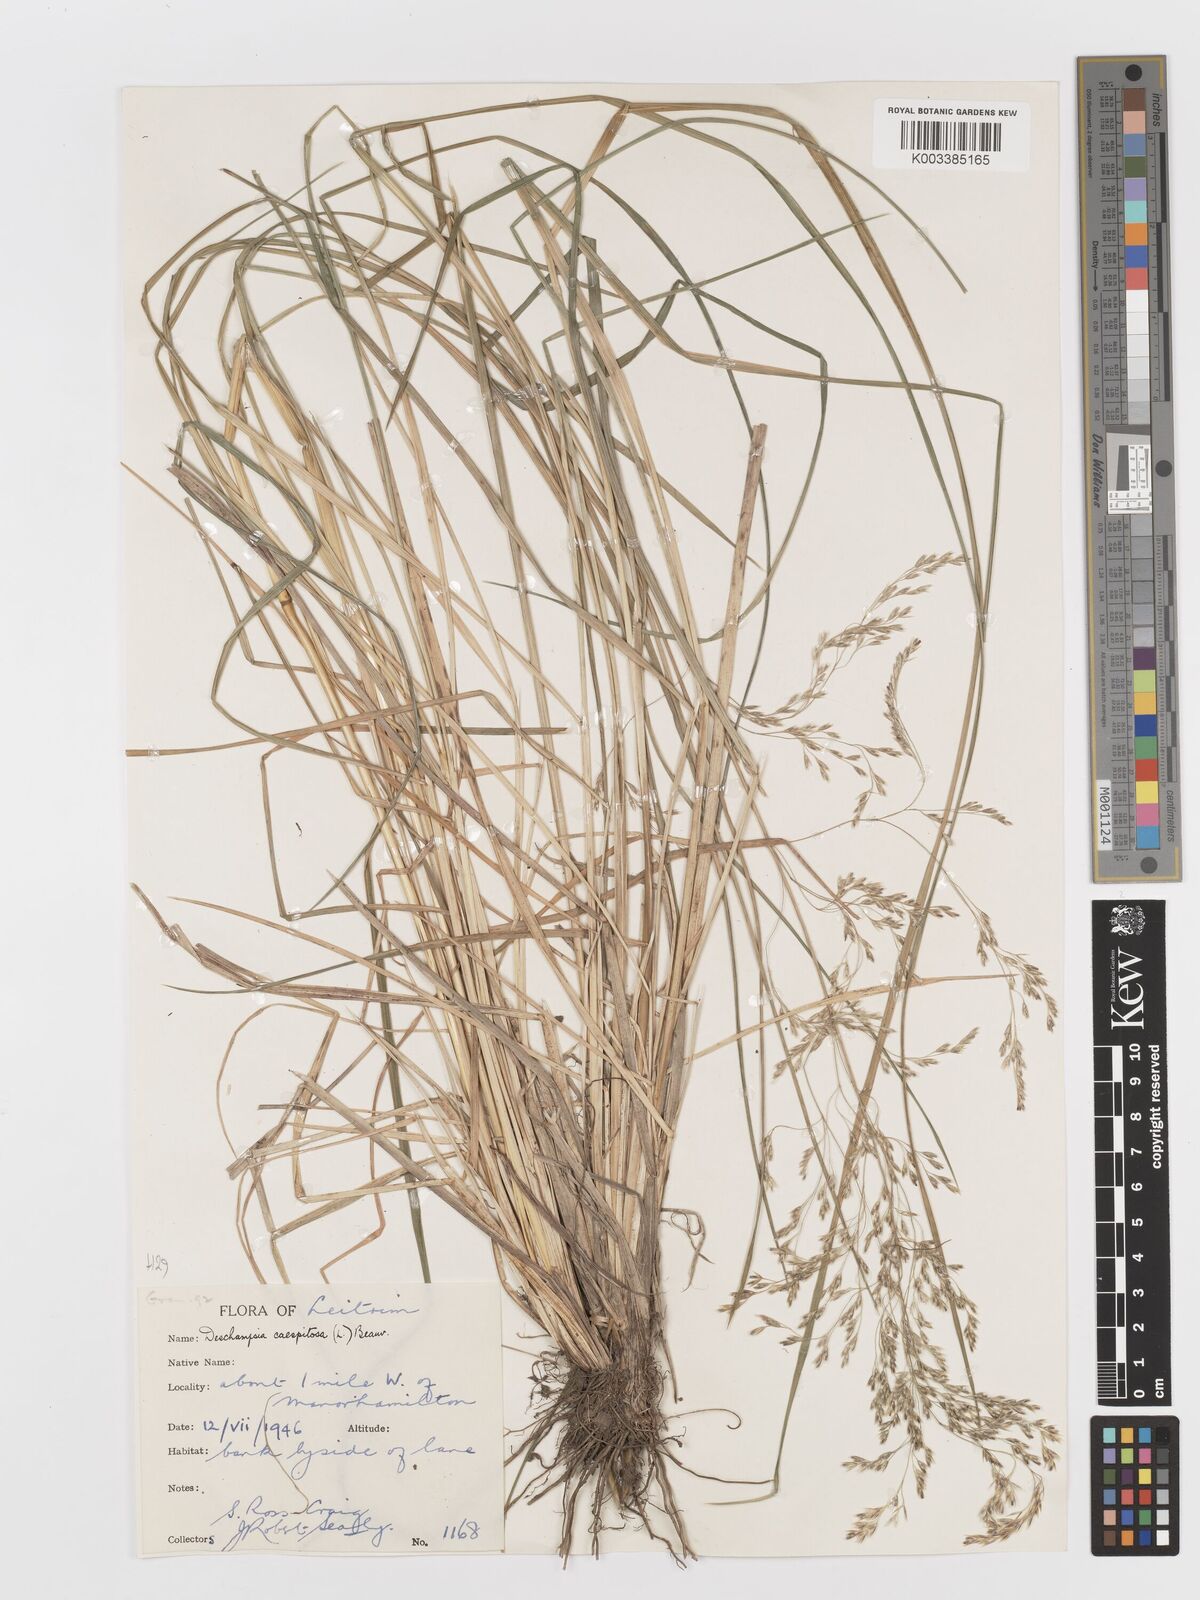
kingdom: Plantae
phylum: Tracheophyta
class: Liliopsida
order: Poales
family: Poaceae
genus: Deschampsia
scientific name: Deschampsia cespitosa
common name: Tufted hair-grass
